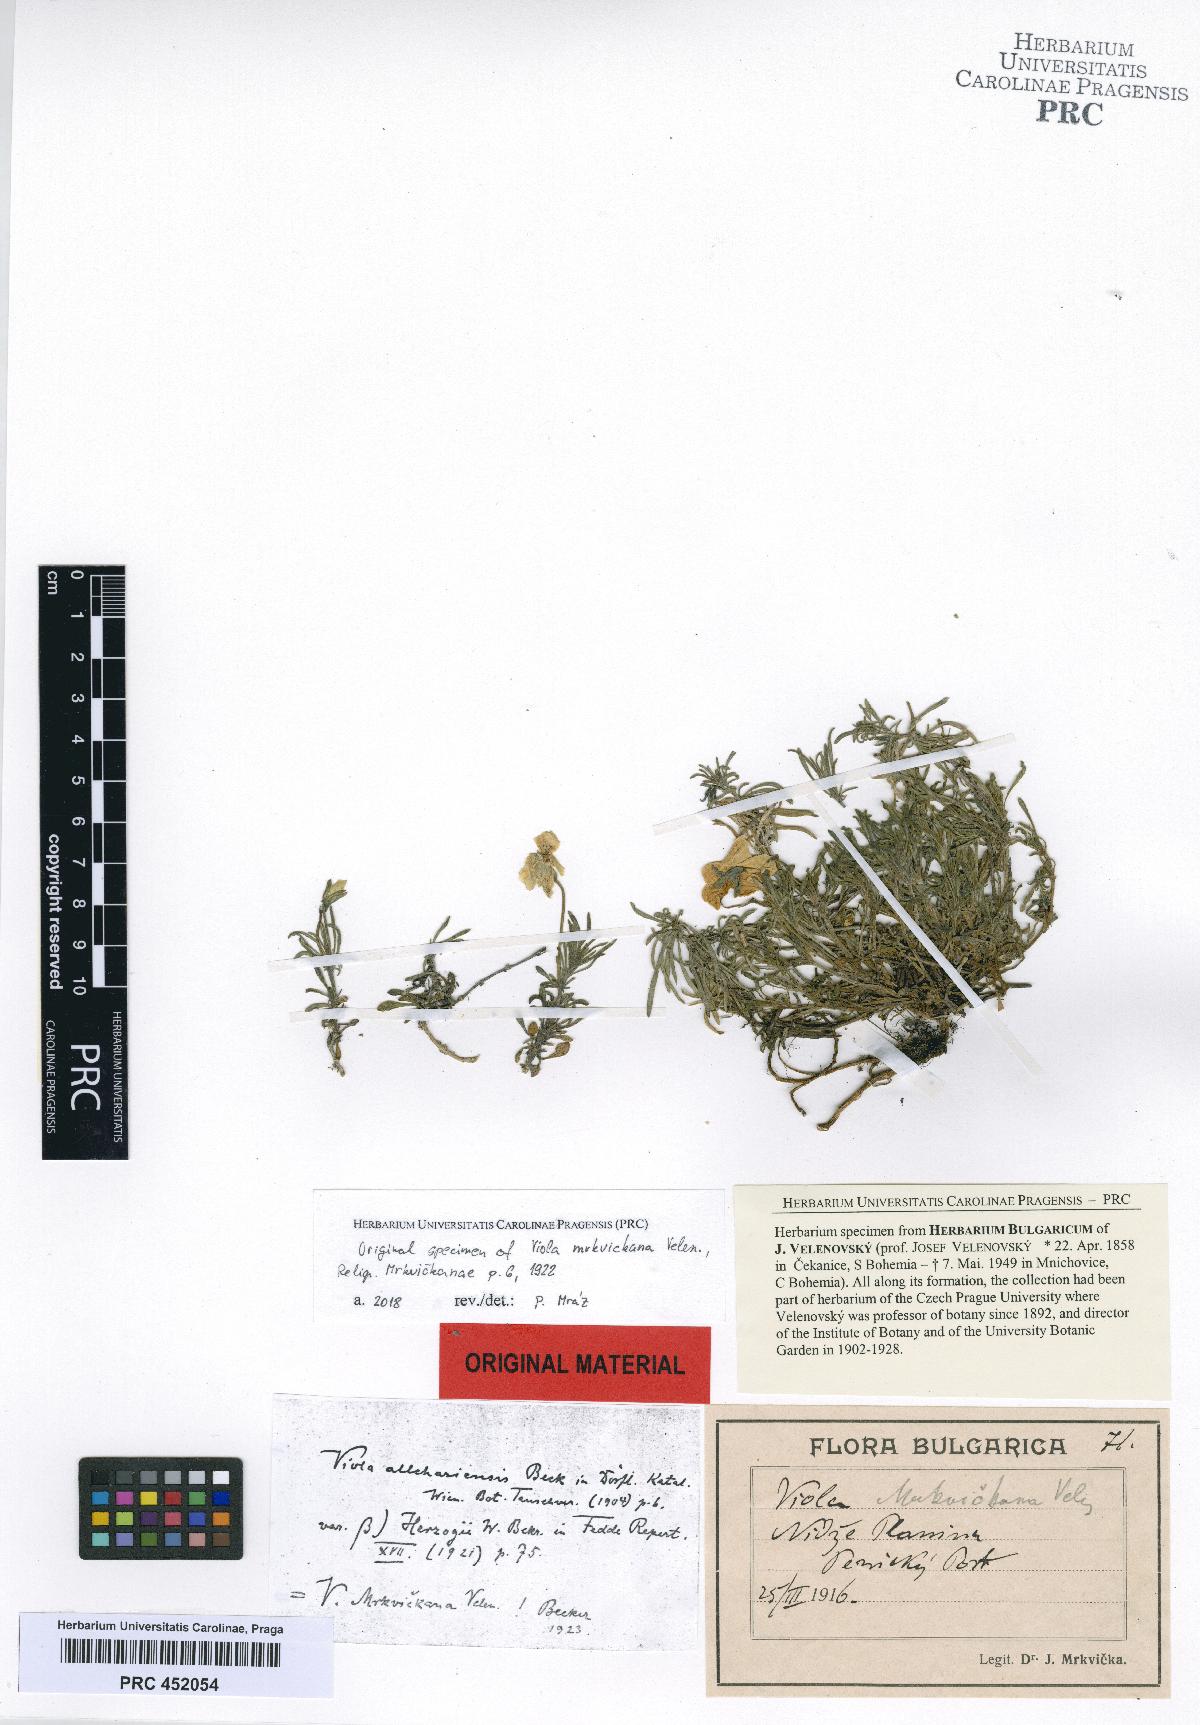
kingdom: Plantae
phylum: Tracheophyta
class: Magnoliopsida
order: Malpighiales
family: Violaceae
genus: Viola
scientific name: Viola herzogii
